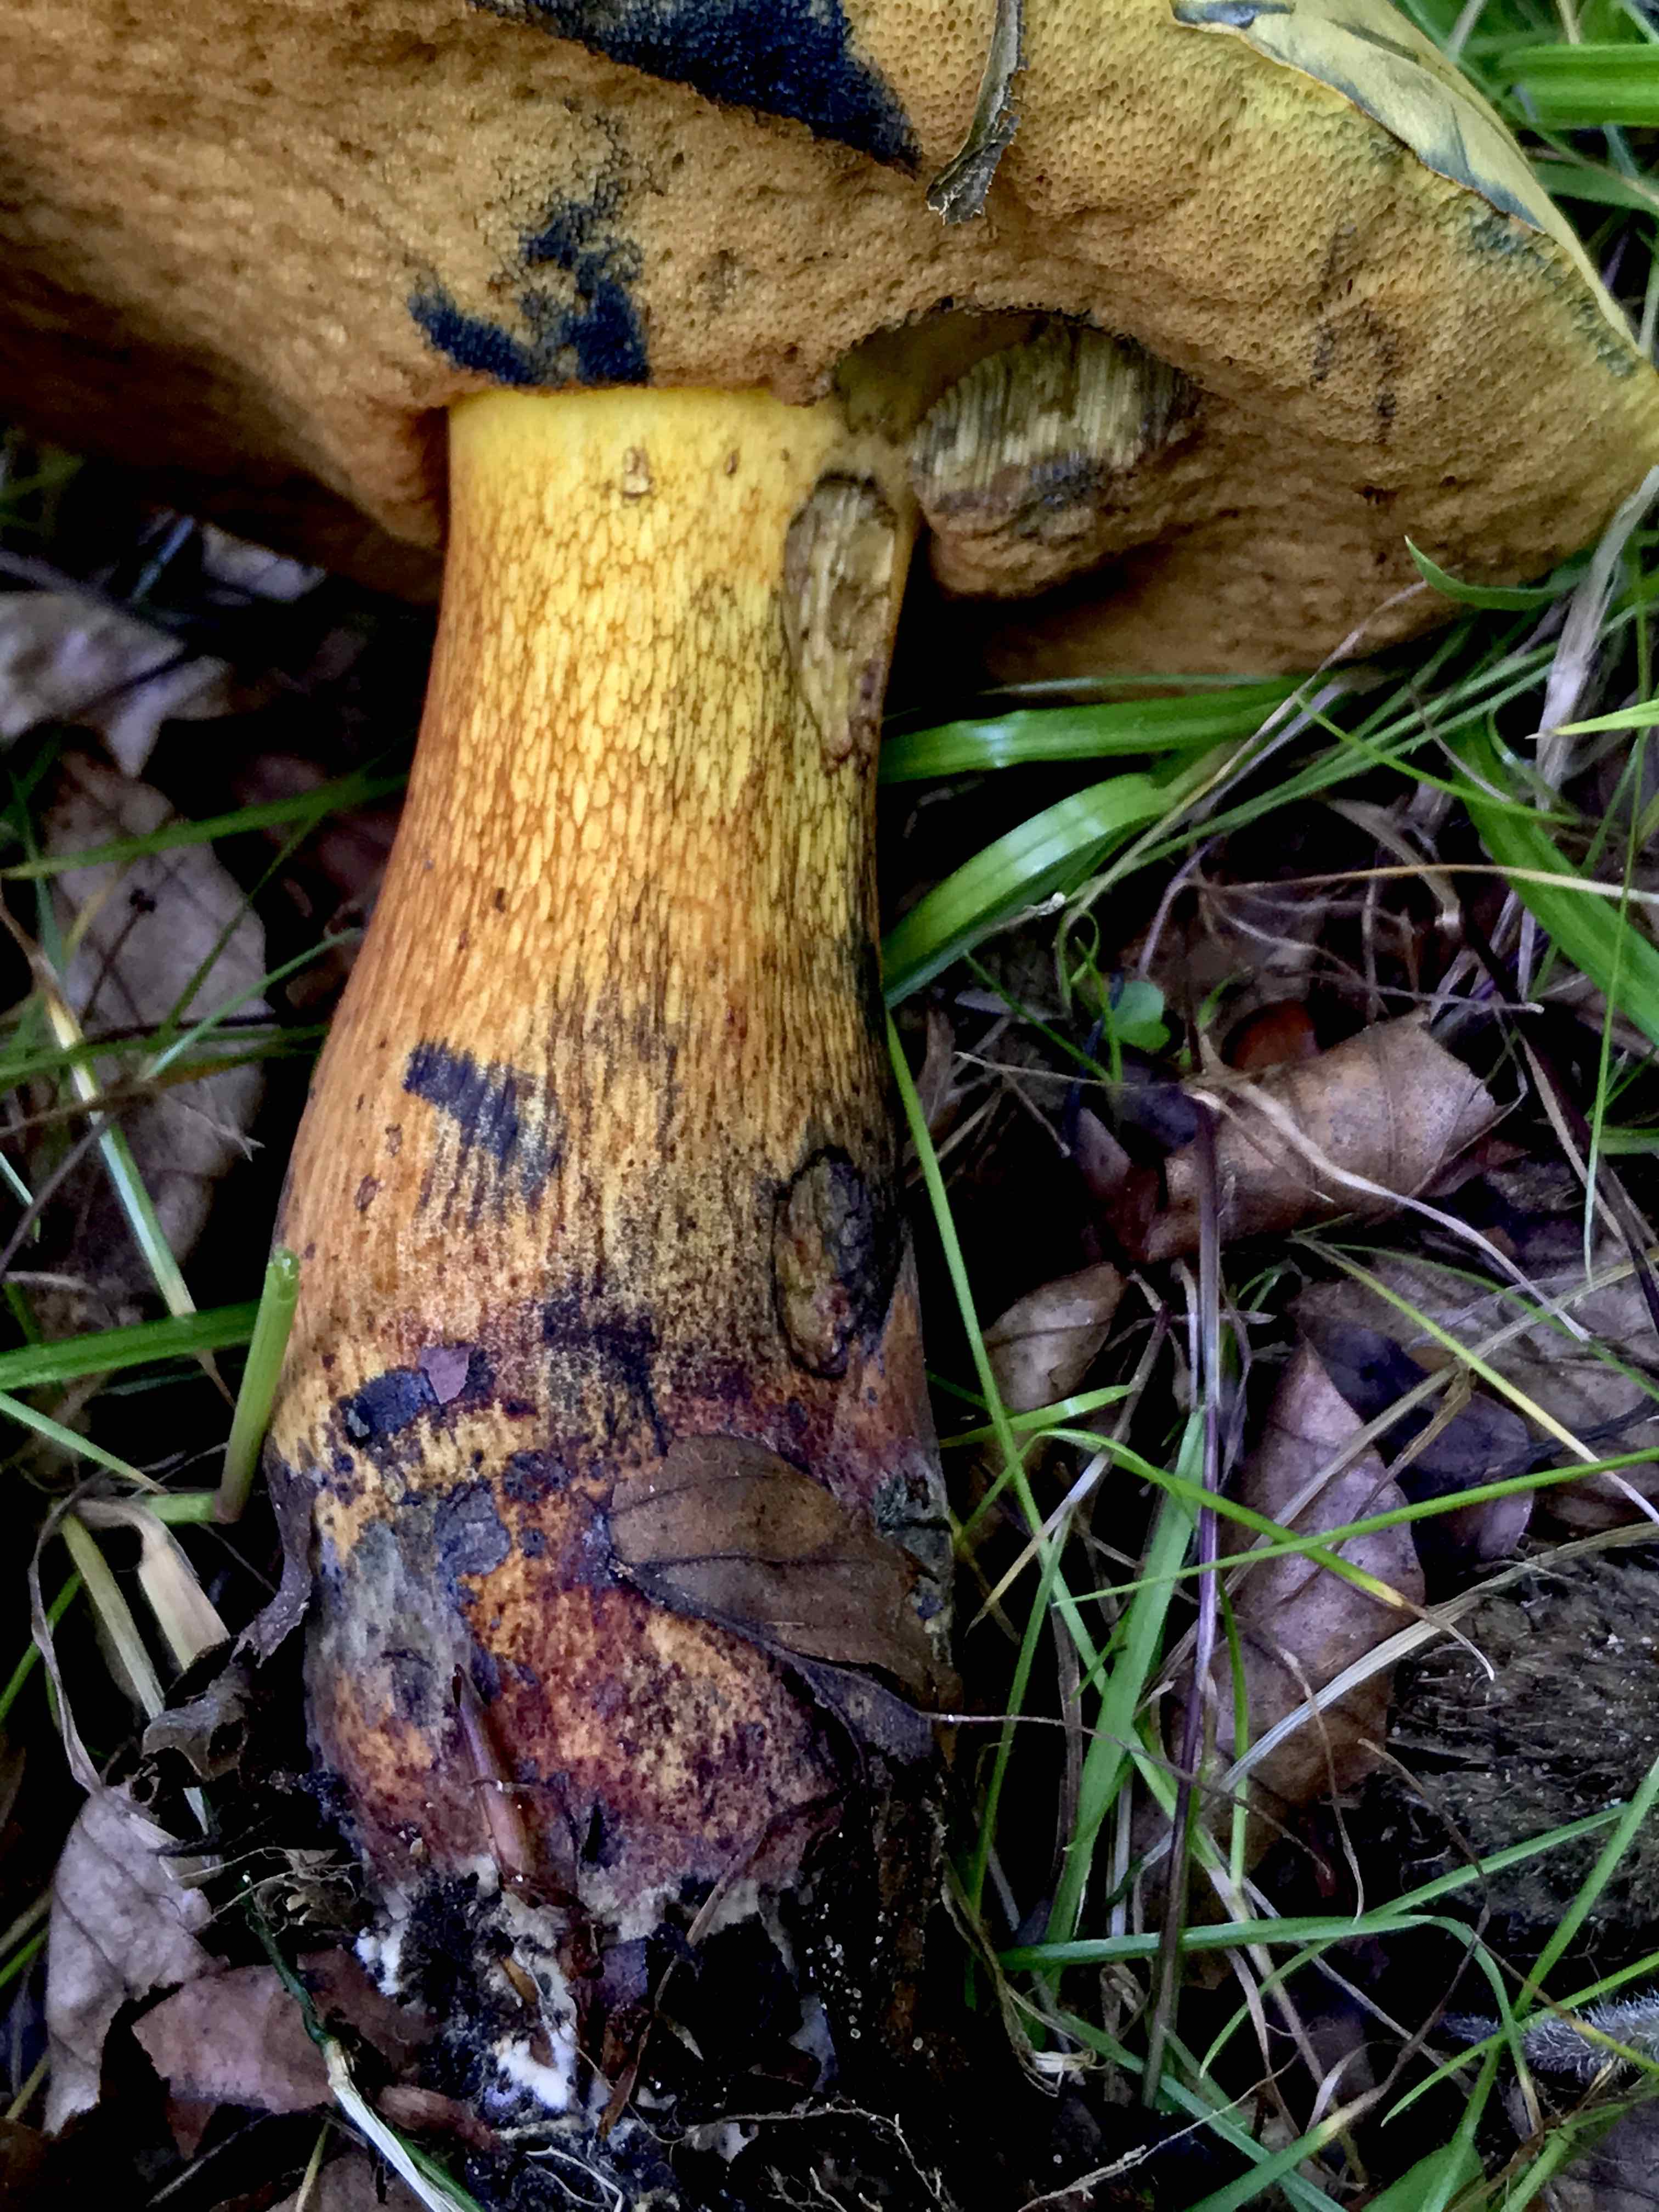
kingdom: Fungi
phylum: Basidiomycota
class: Agaricomycetes
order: Boletales
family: Boletaceae
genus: Suillellus
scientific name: Suillellus luridus
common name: netstokket indigorørhat
